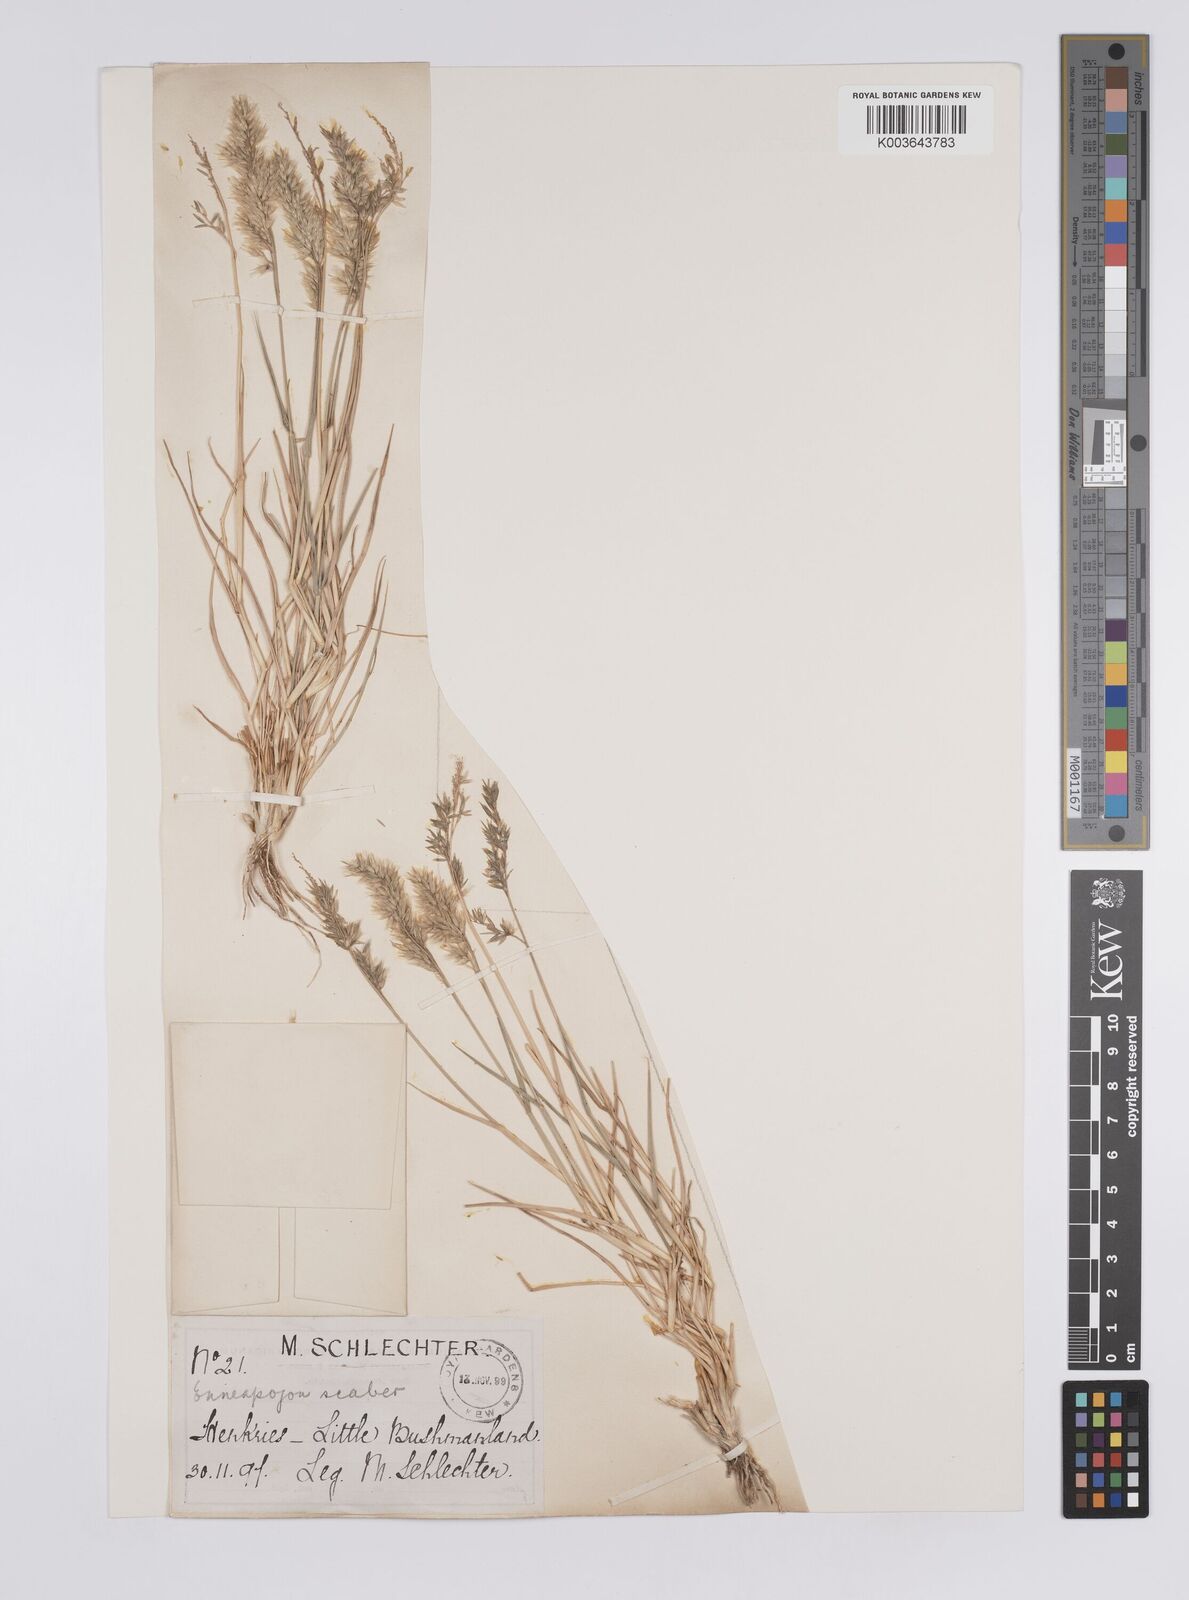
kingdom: Plantae
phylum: Tracheophyta
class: Liliopsida
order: Poales
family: Poaceae
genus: Enneapogon
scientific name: Enneapogon scaber
